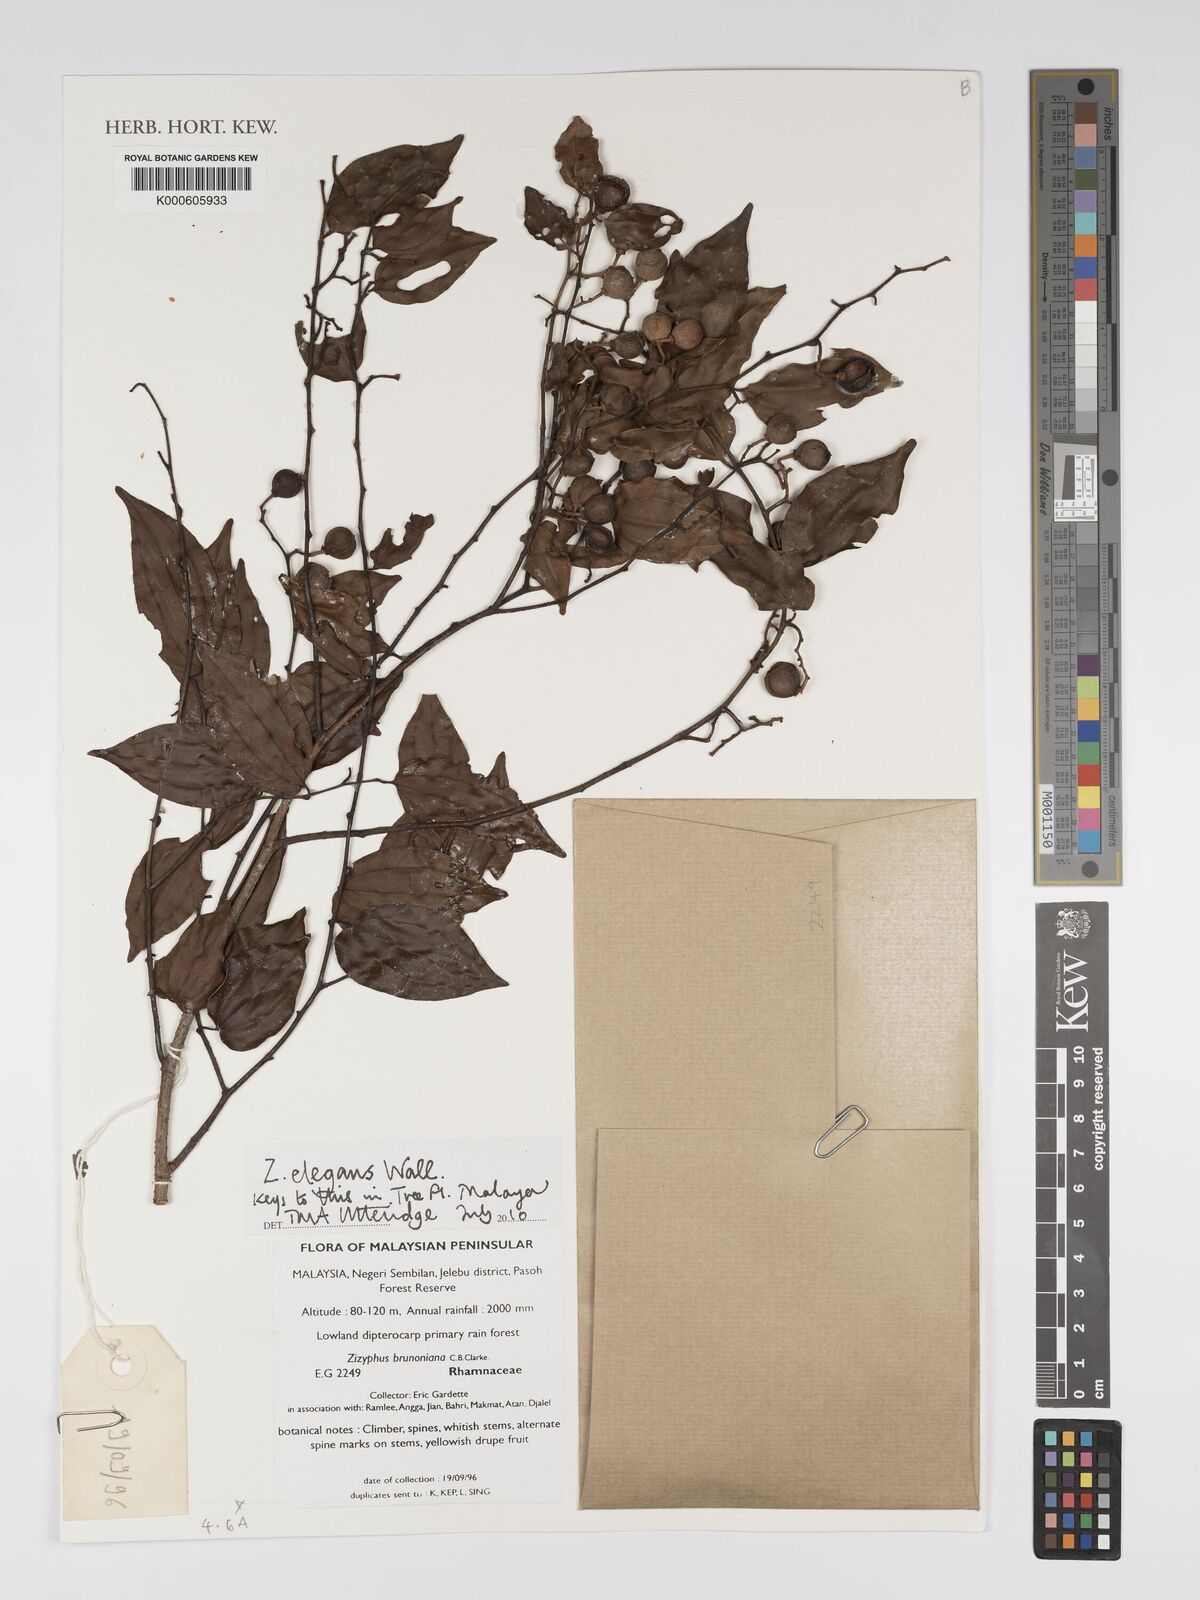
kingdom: Plantae
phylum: Tracheophyta
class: Magnoliopsida
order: Rosales
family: Rhamnaceae
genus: Ziziphus
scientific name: Ziziphus elegans
